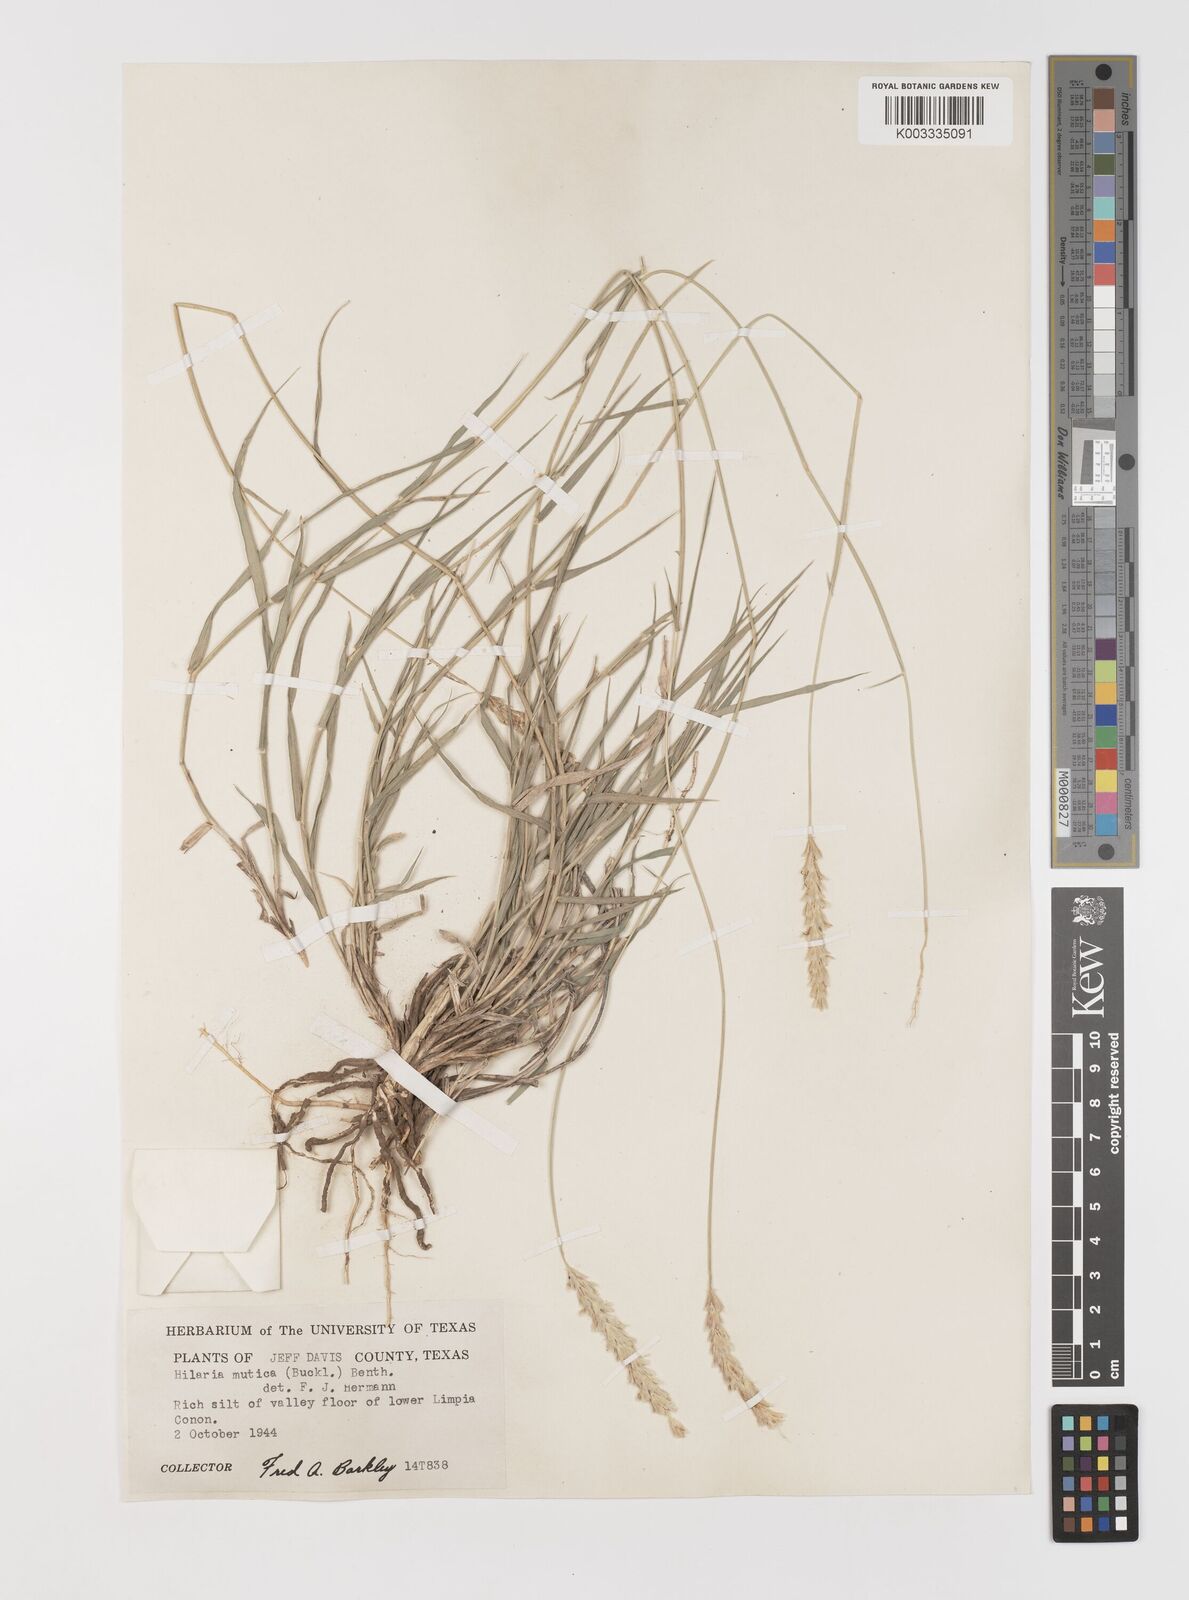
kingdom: Plantae
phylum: Tracheophyta
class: Liliopsida
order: Poales
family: Poaceae
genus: Hilaria
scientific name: Hilaria jamesii
